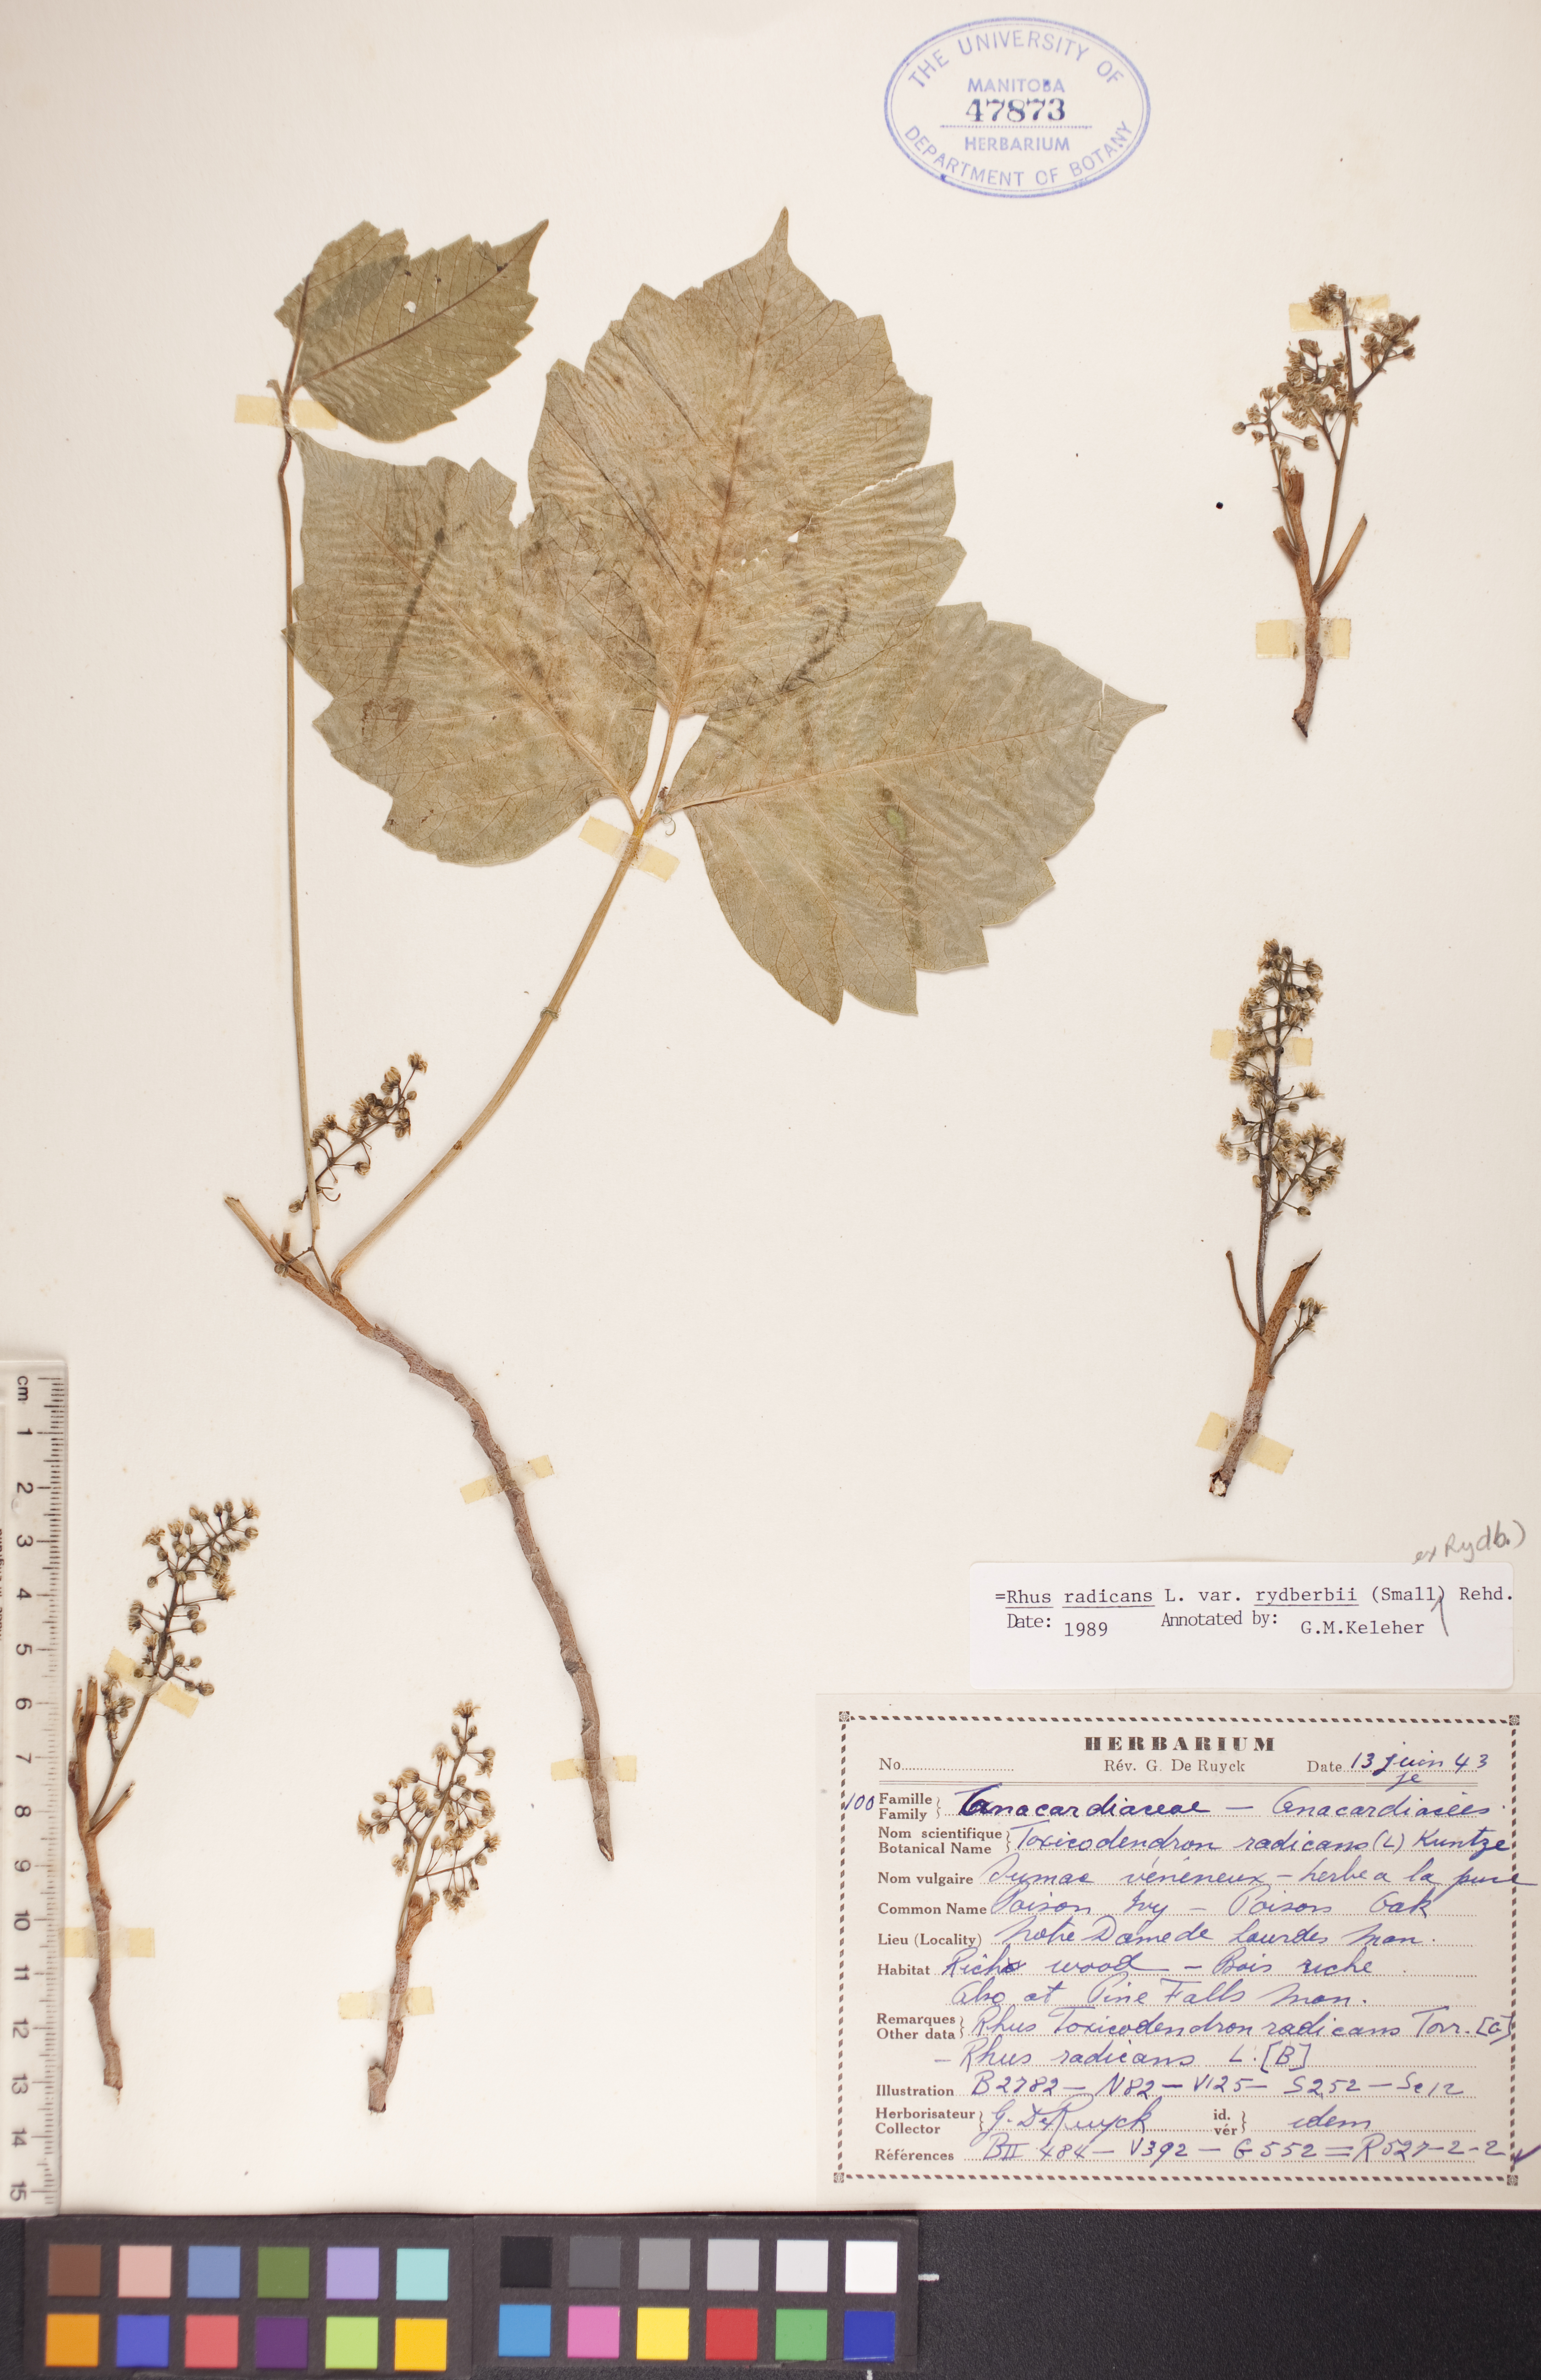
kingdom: Plantae
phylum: Tracheophyta
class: Magnoliopsida
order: Sapindales
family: Anacardiaceae
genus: Toxicodendron
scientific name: Toxicodendron rydbergii
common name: Rydberg's poison-ivy
